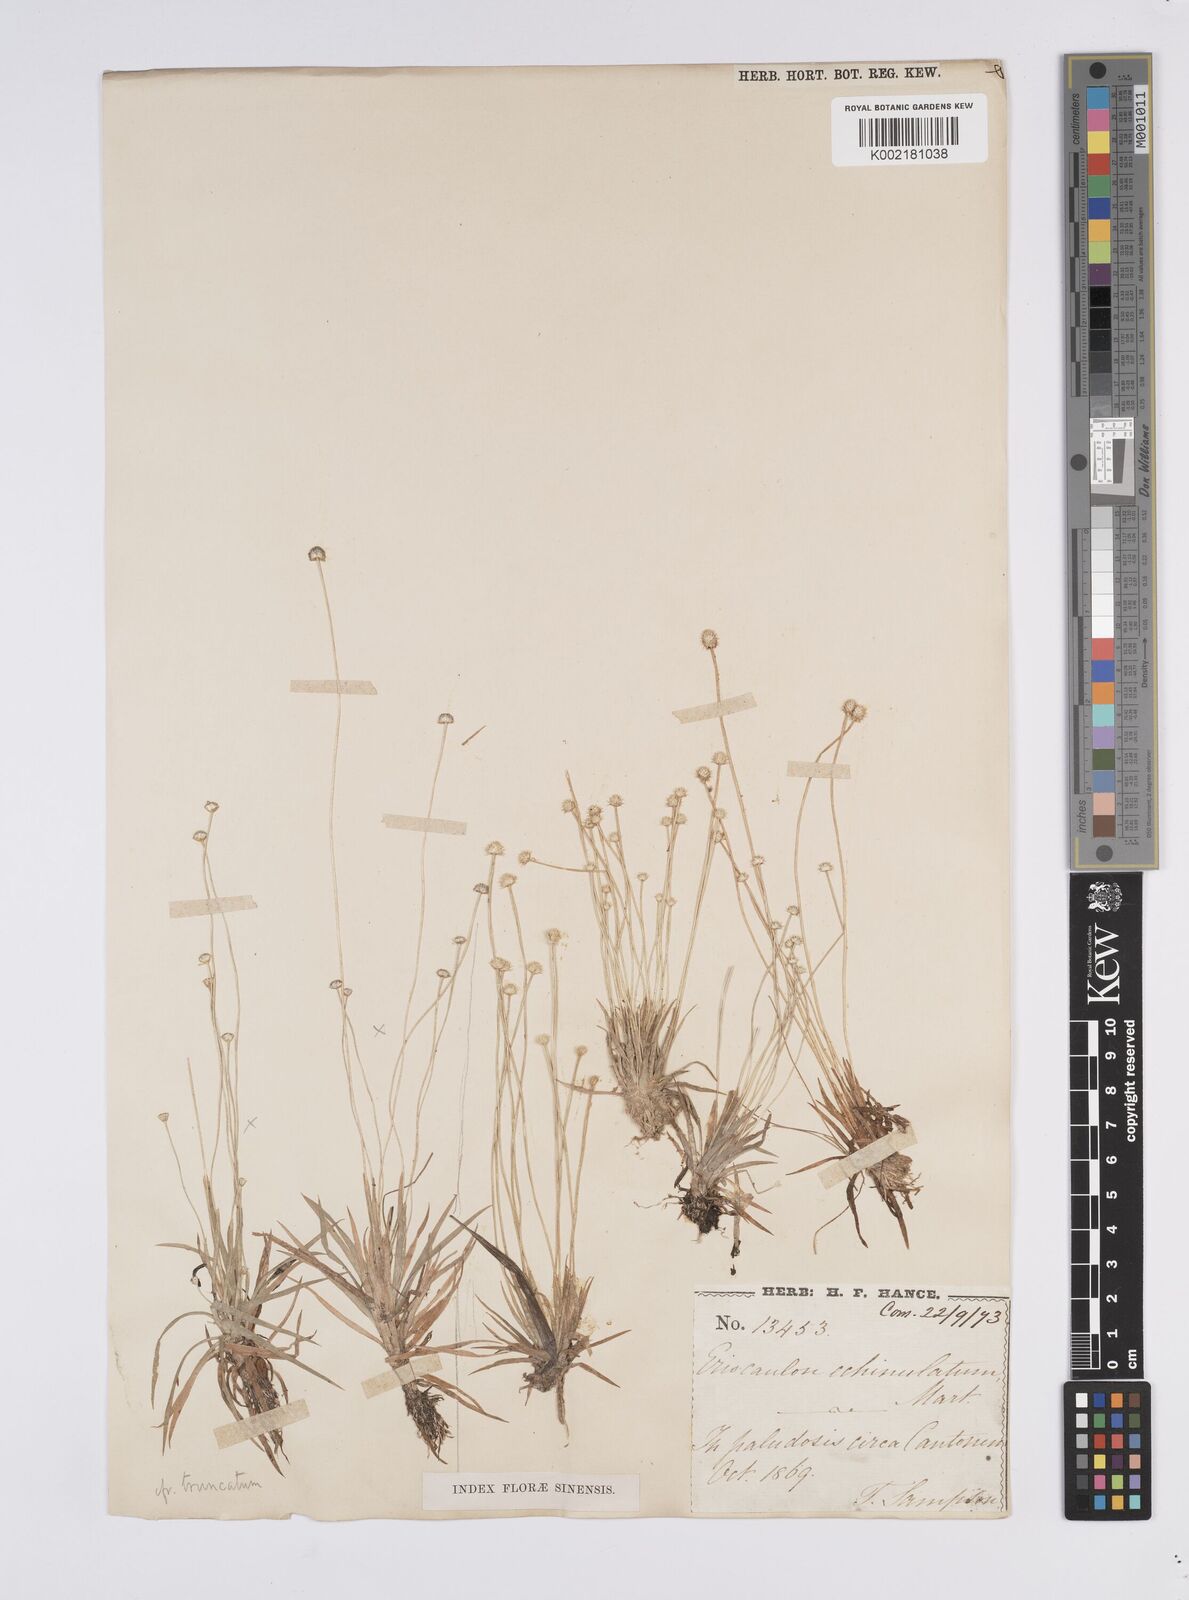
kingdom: Plantae
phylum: Tracheophyta
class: Liliopsida
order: Poales
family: Eriocaulaceae
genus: Eriocaulon
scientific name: Eriocaulon echinulatum
